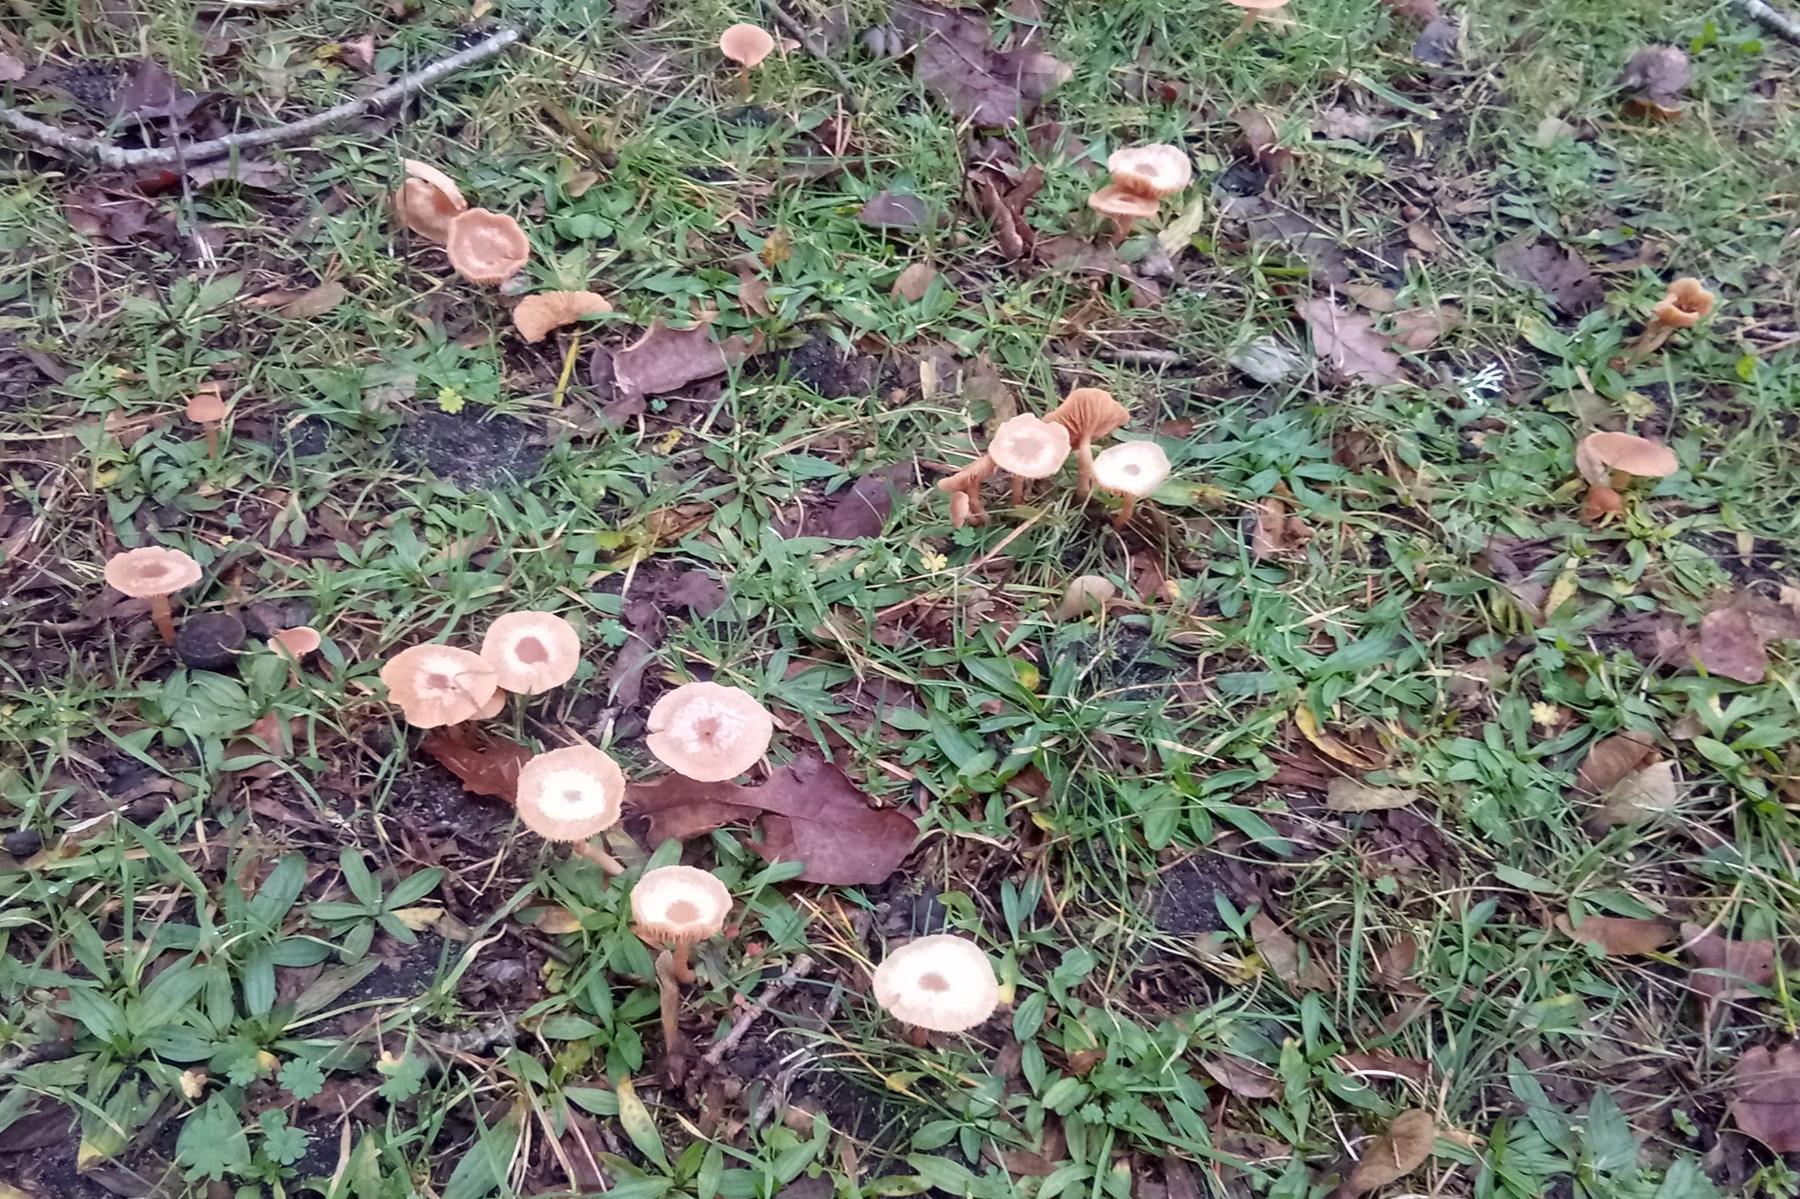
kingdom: Fungi
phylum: Basidiomycota
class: Agaricomycetes
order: Agaricales
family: Tubariaceae
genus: Tubaria
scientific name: Tubaria furfuracea
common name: kliddet fnughat
